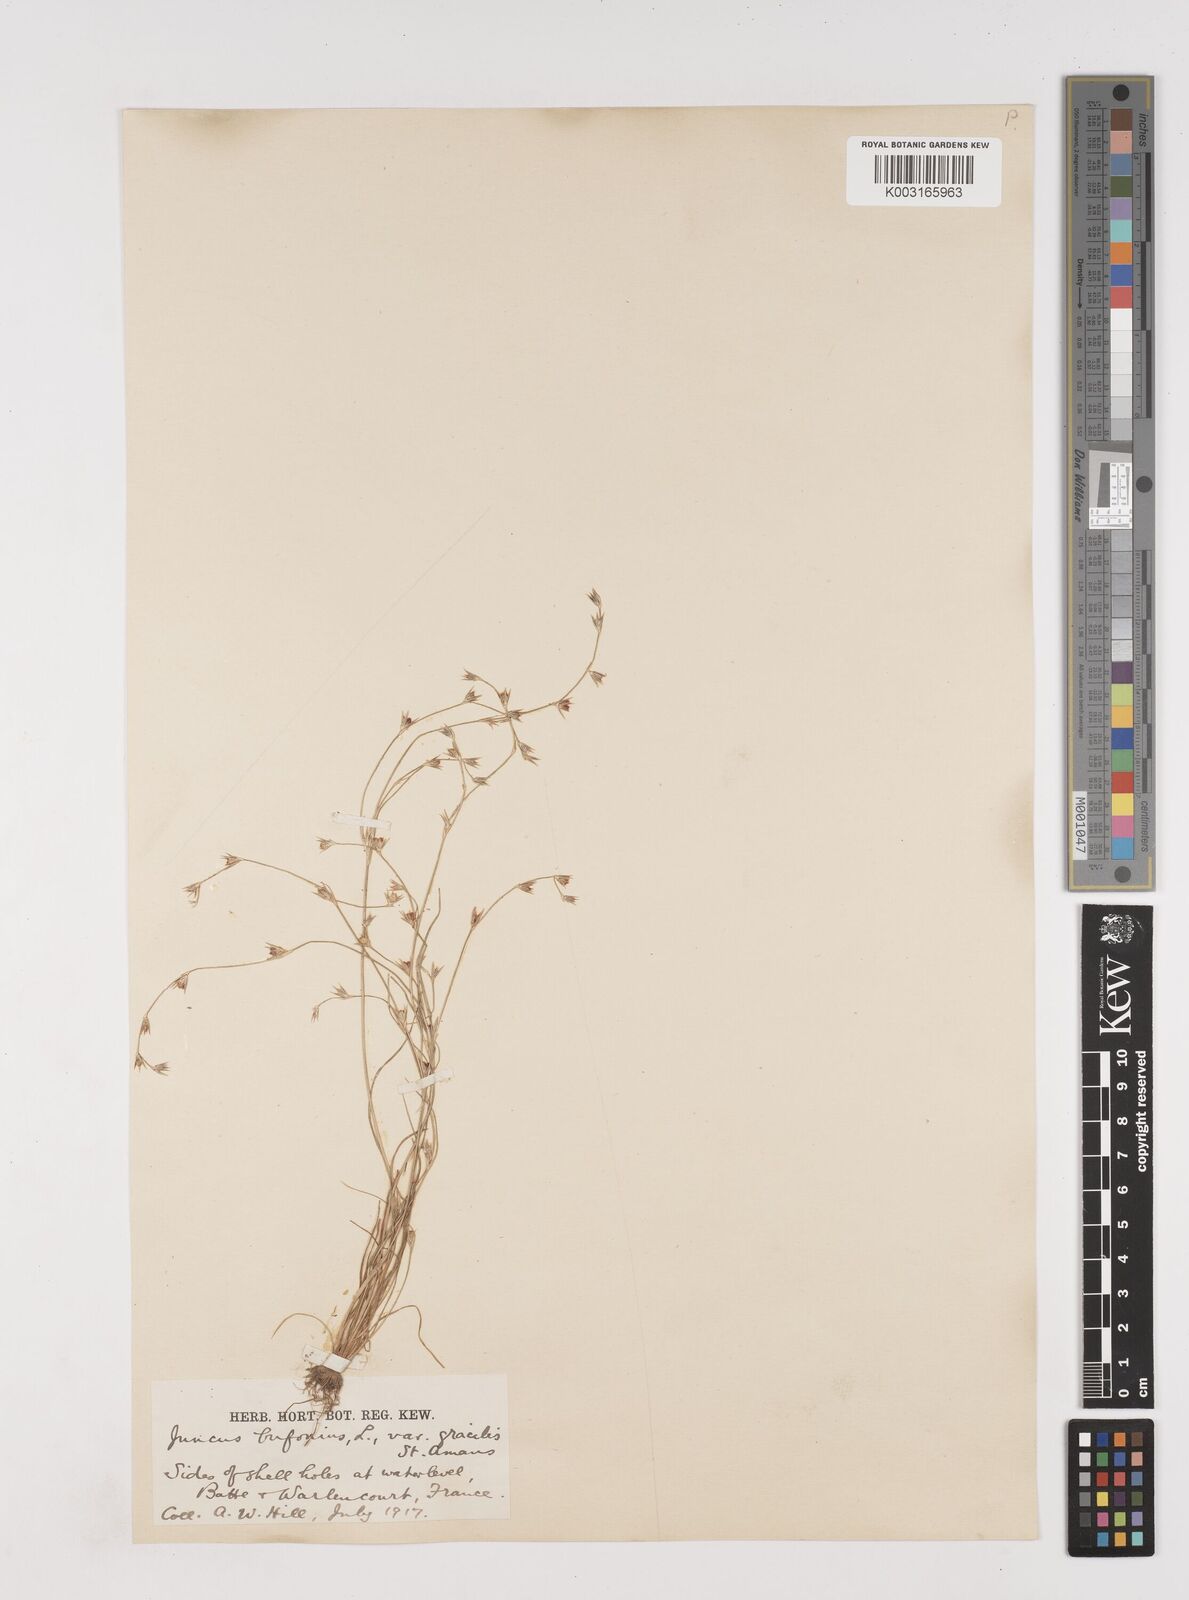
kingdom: Plantae
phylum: Tracheophyta
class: Liliopsida
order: Poales
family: Juncaceae
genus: Juncus
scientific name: Juncus bufonius
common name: Toad rush
